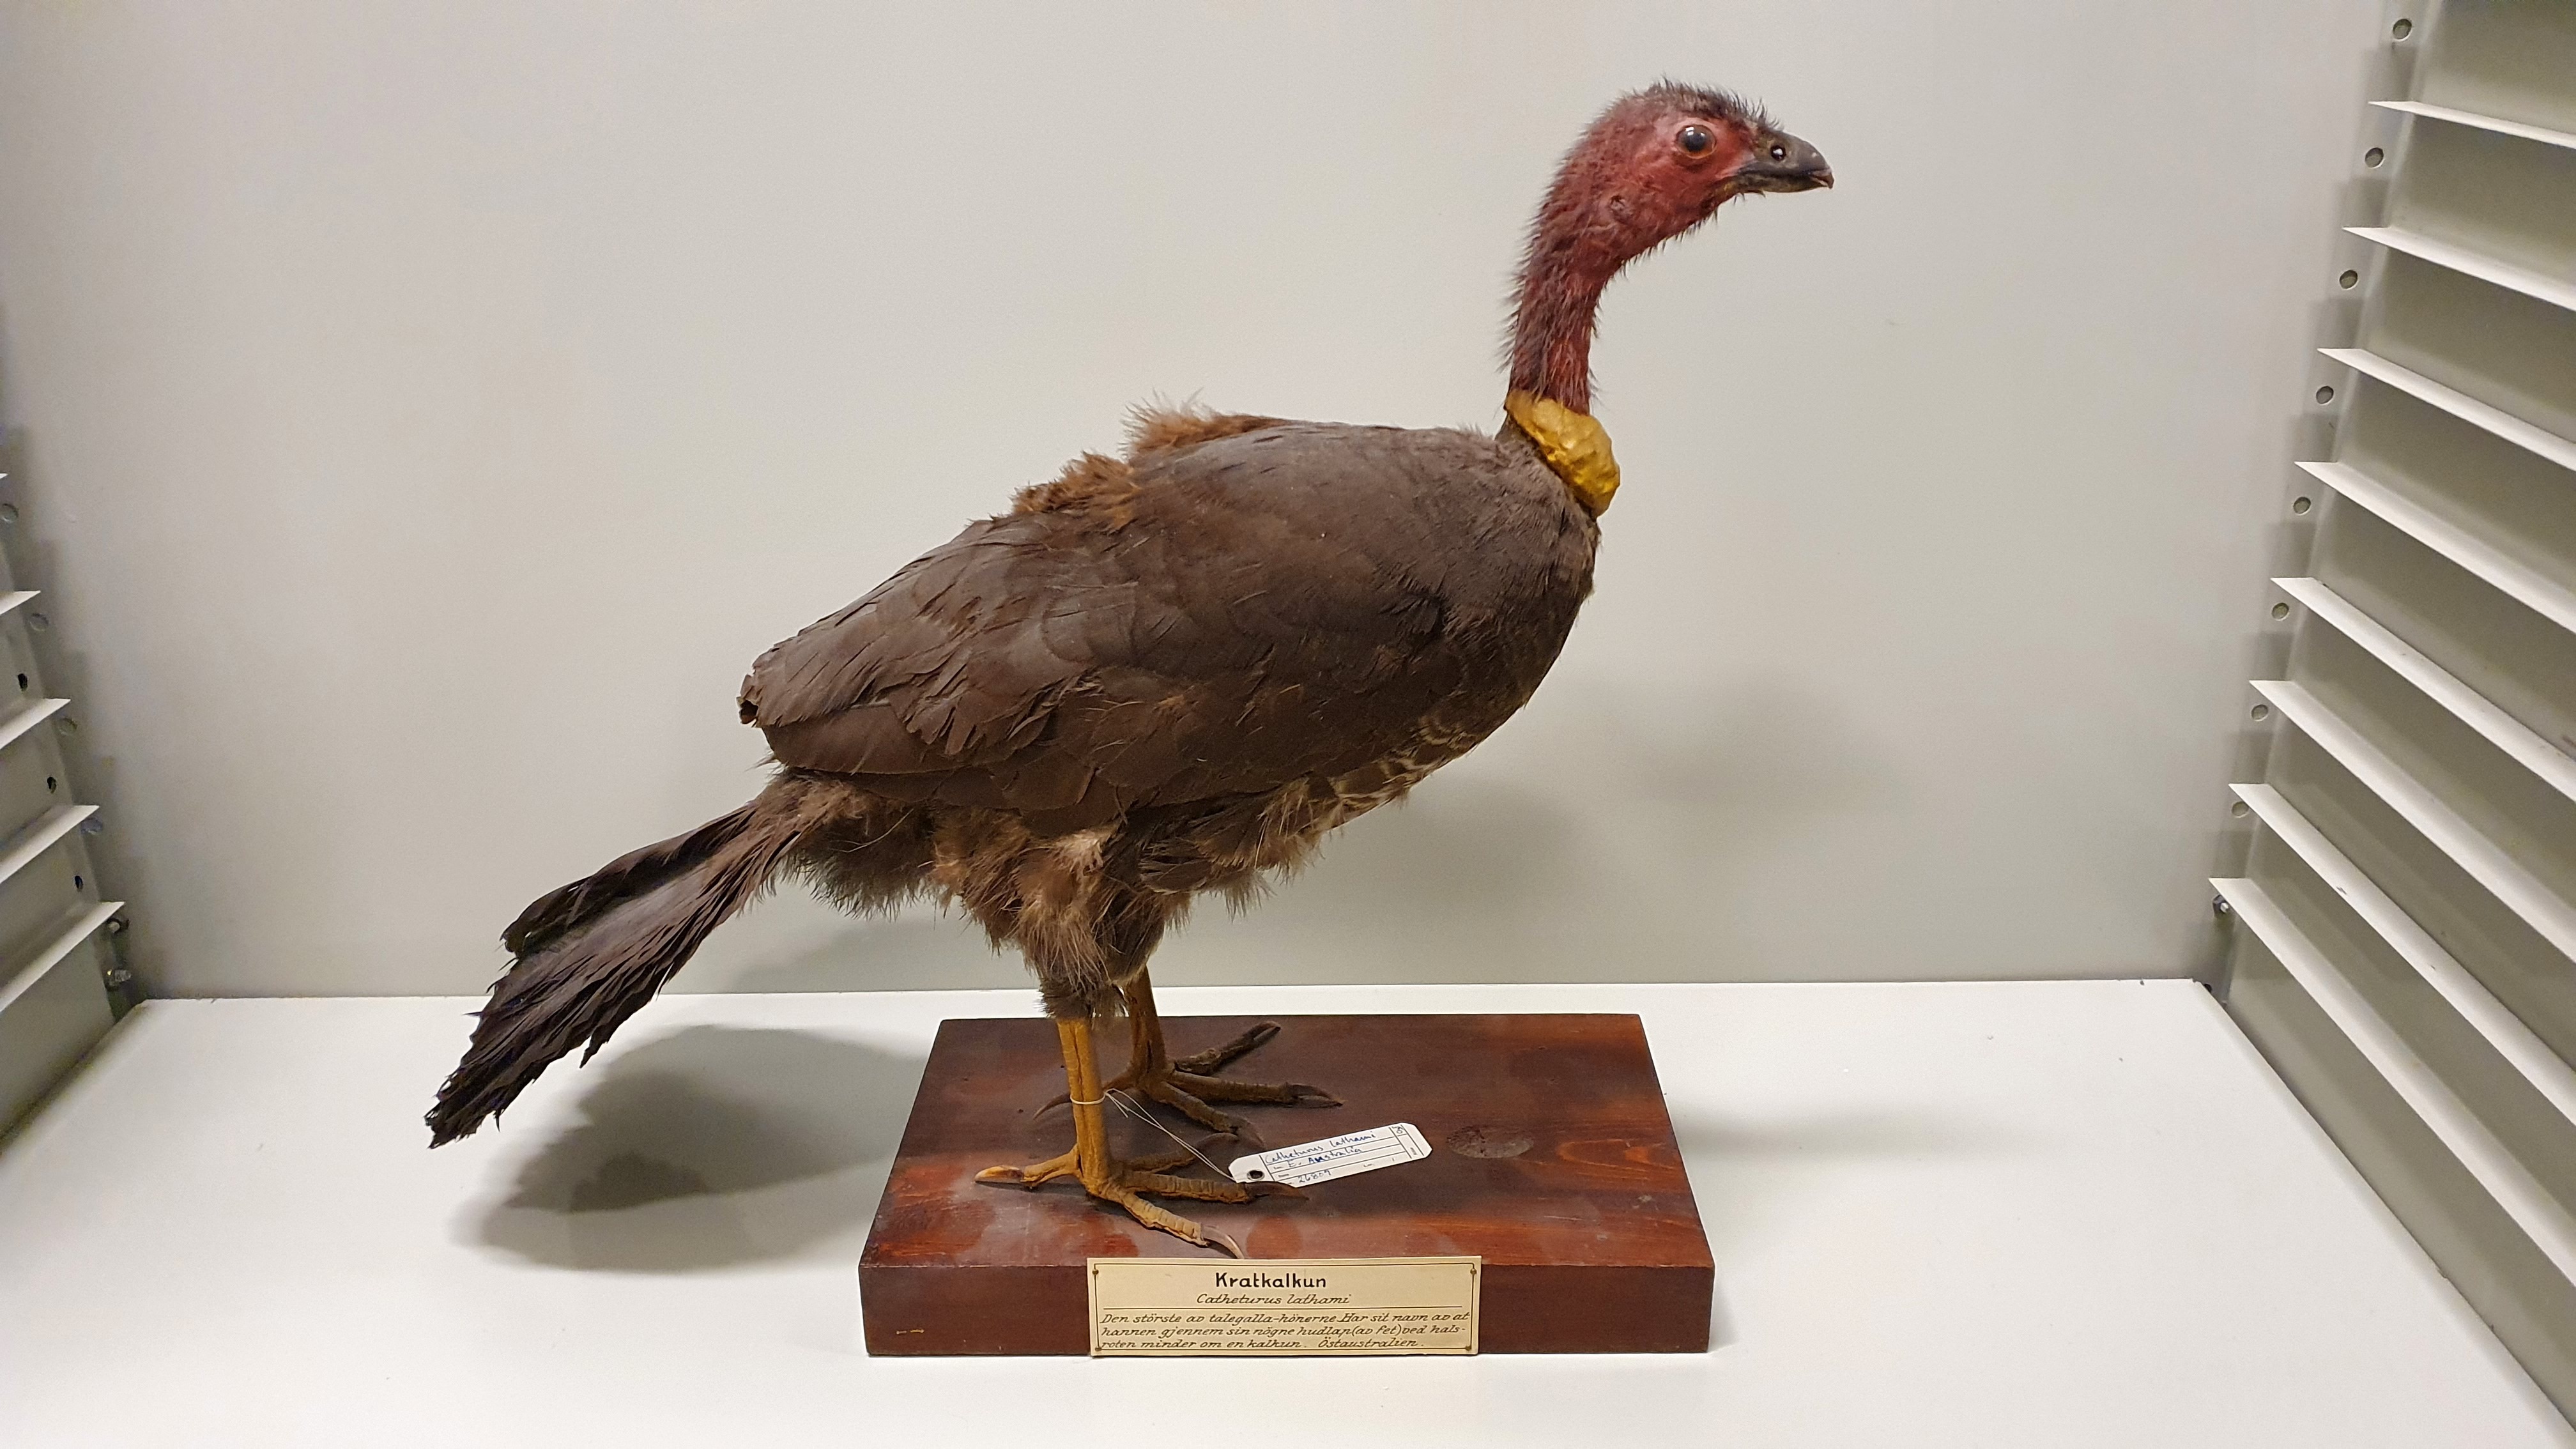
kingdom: Animalia
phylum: Chordata
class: Aves
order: Galliformes
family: Megapodiidae
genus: Alectura
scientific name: Alectura lathami
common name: Australian brushturkey
